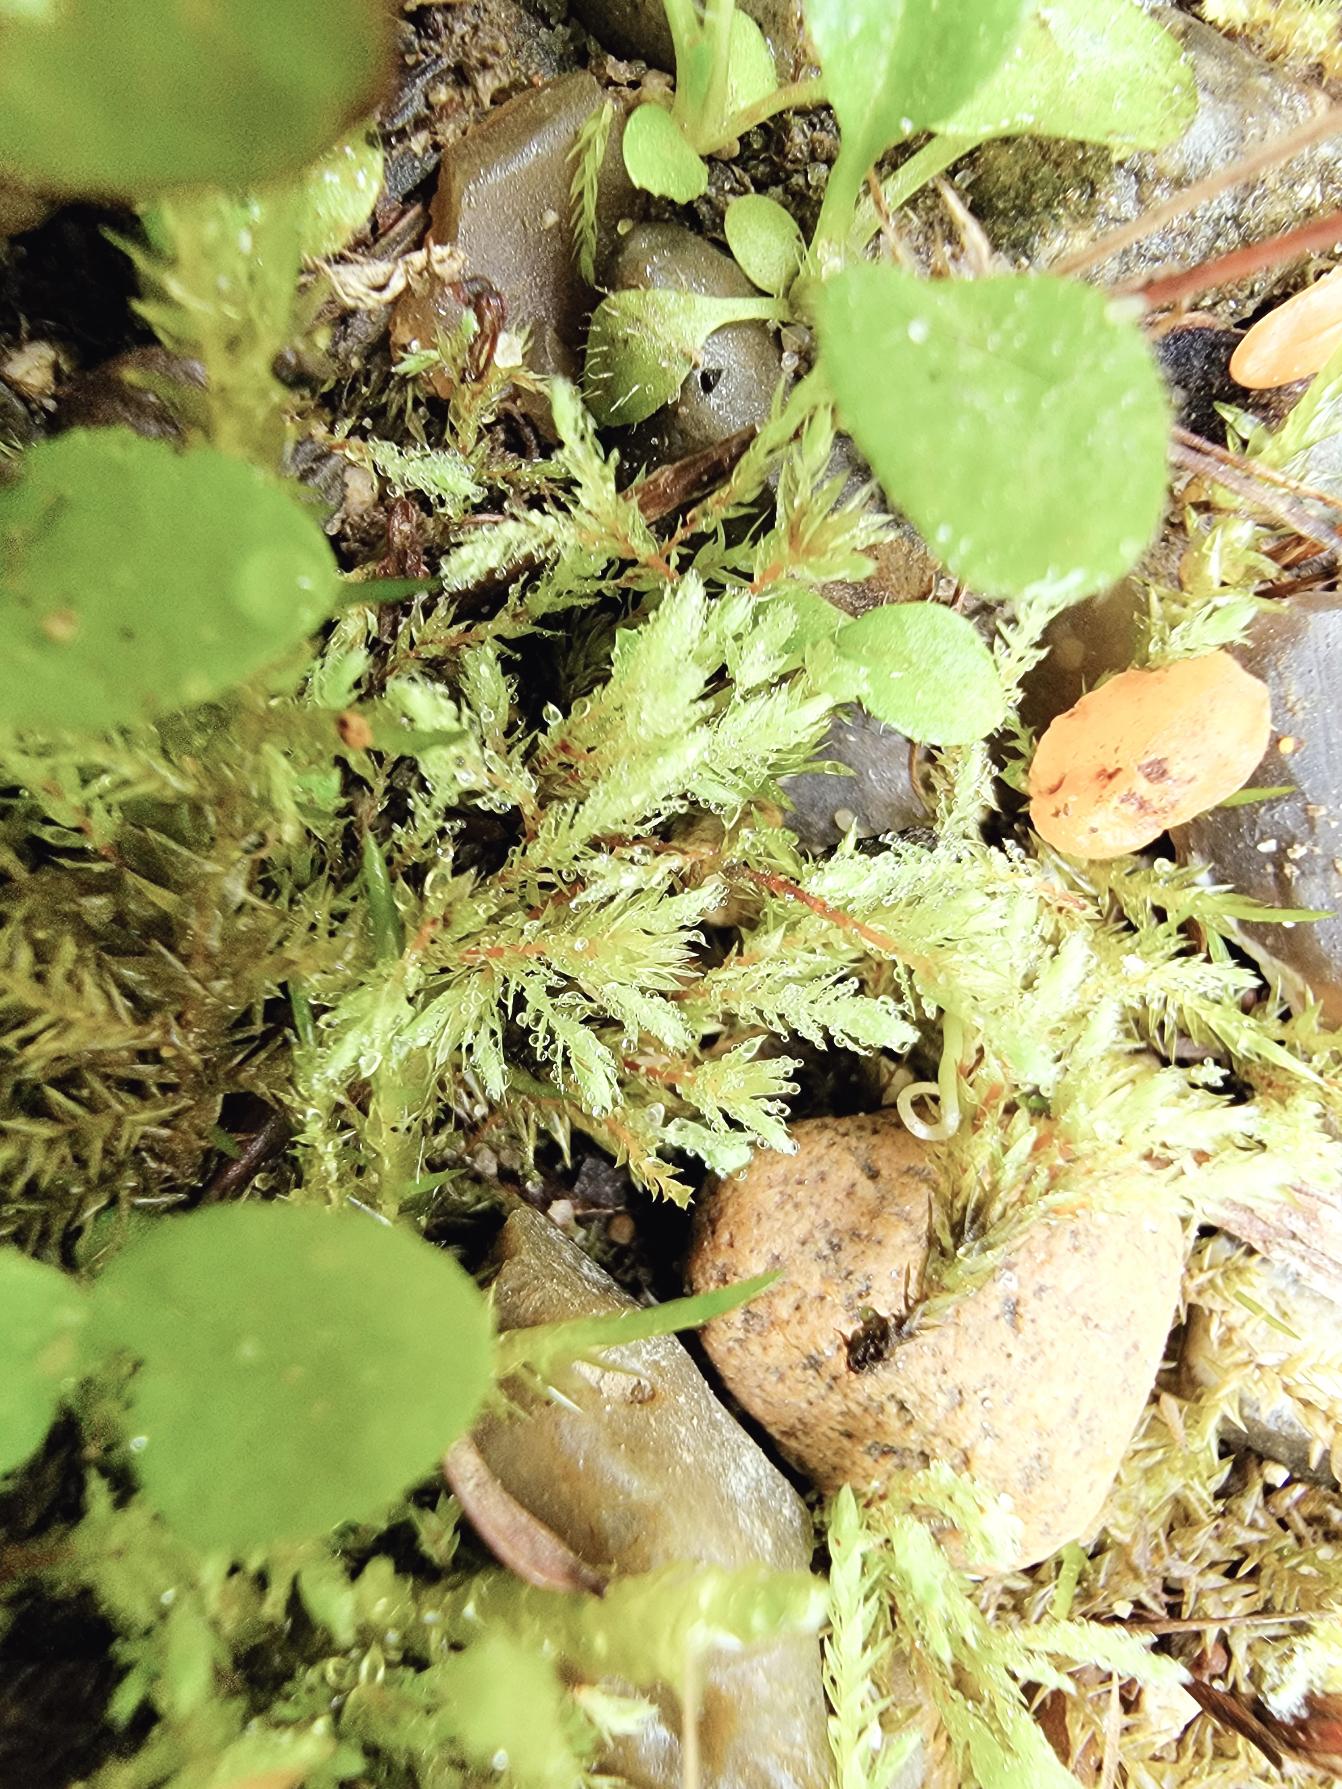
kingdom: Plantae
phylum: Bryophyta
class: Bryopsida
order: Bryales
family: Mniaceae
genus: Pohlia
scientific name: Pohlia wahlenbergii
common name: Lysegrøn voksmos
